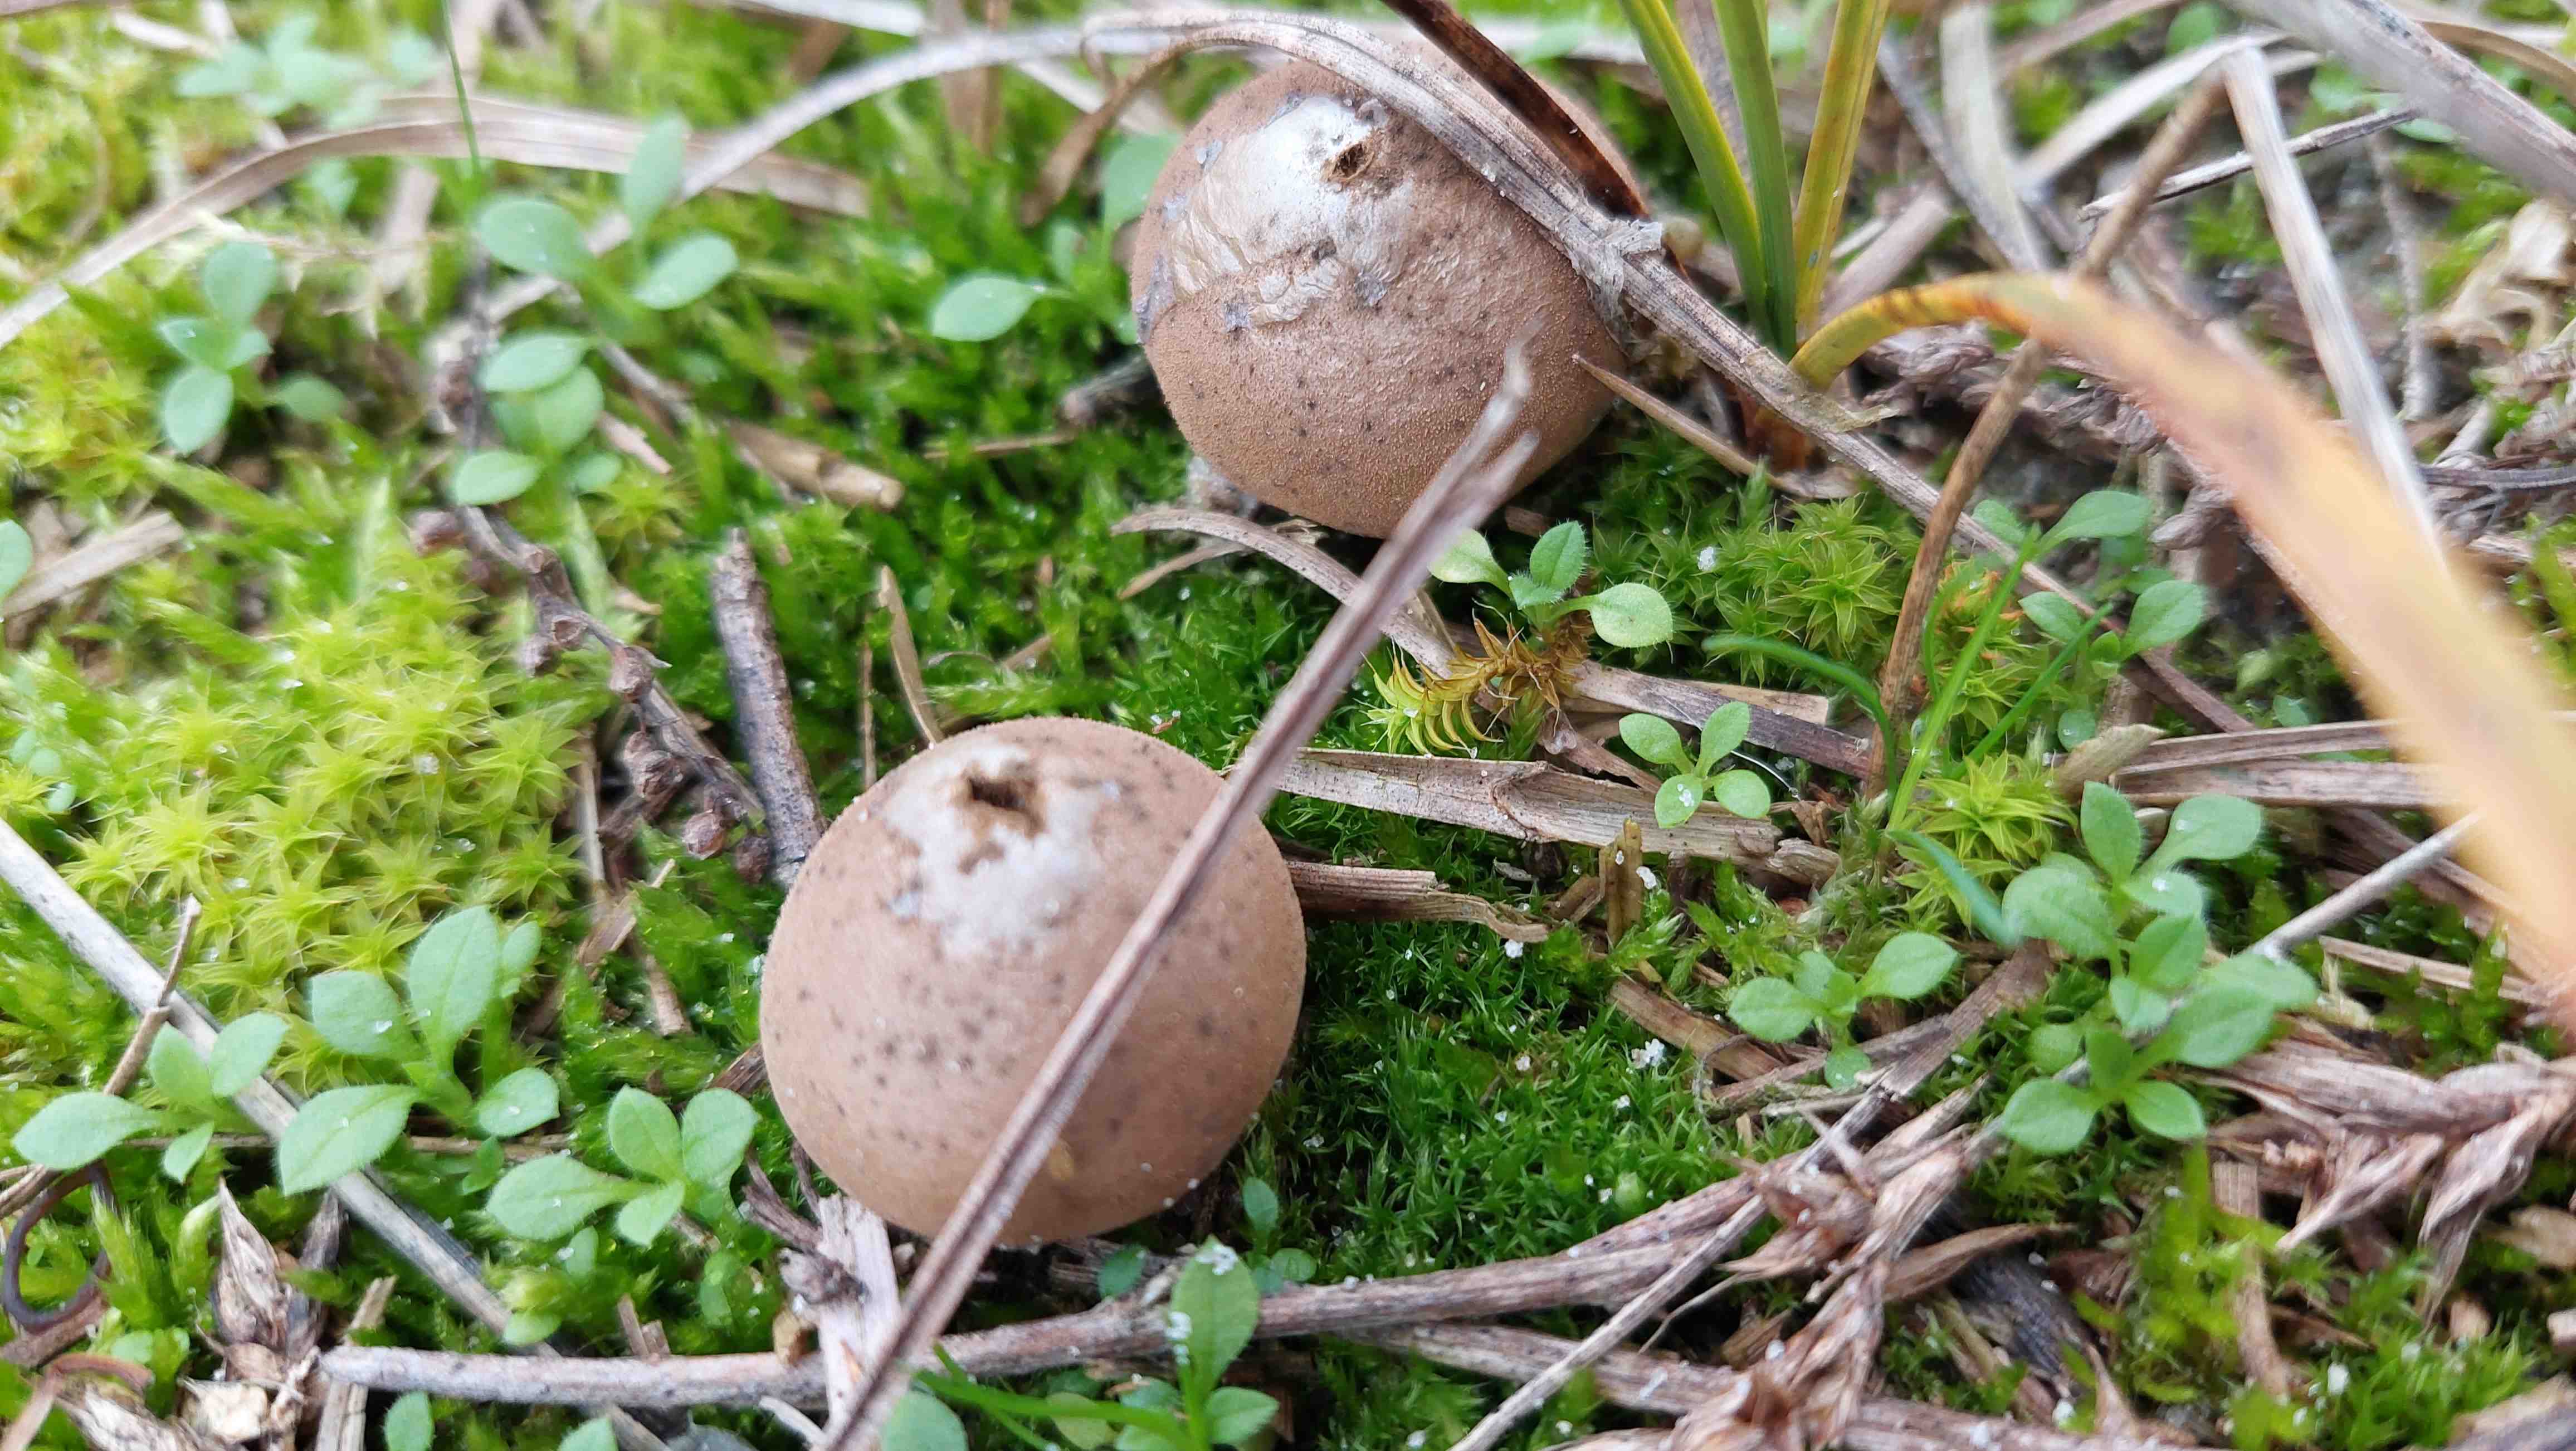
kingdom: Fungi
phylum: Basidiomycota
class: Agaricomycetes
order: Agaricales
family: Lycoperdaceae
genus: Lycoperdon
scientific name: Lycoperdon lividum
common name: mark-støvbold
